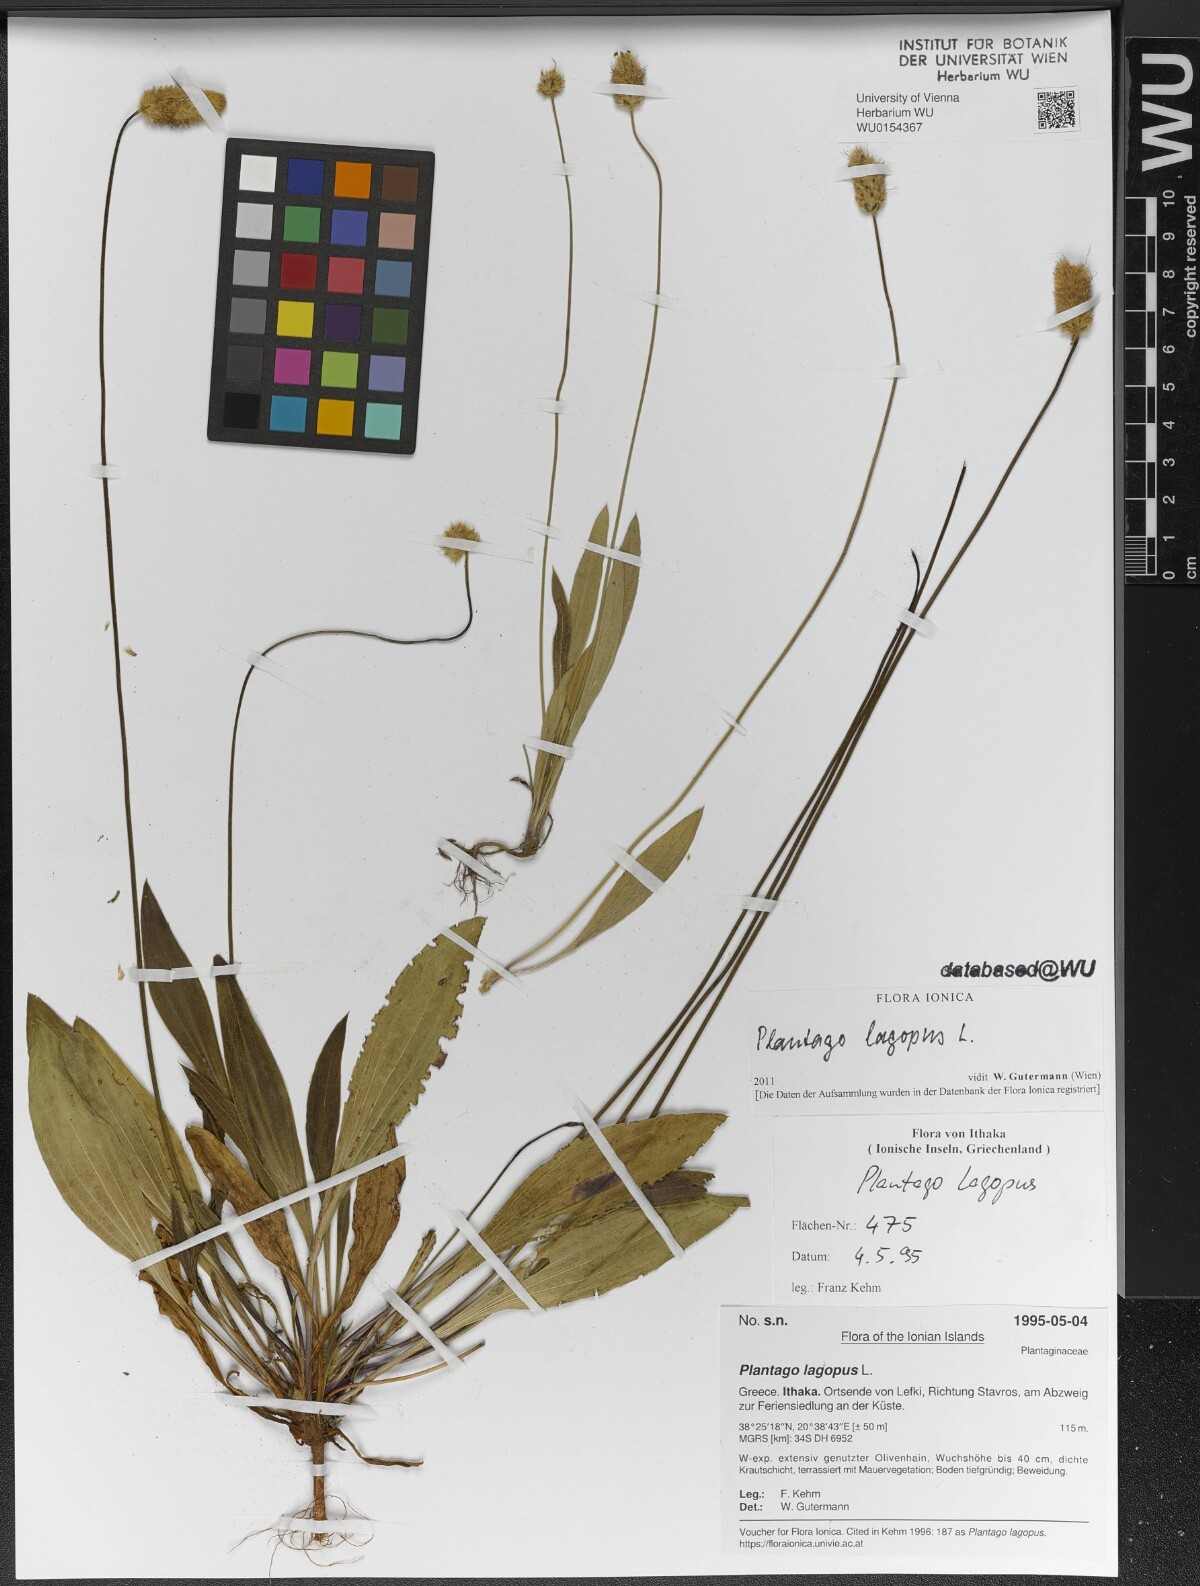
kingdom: Plantae
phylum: Tracheophyta
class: Magnoliopsida
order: Lamiales
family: Plantaginaceae
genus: Plantago
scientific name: Plantago lagopus
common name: Hare-foot plantain
